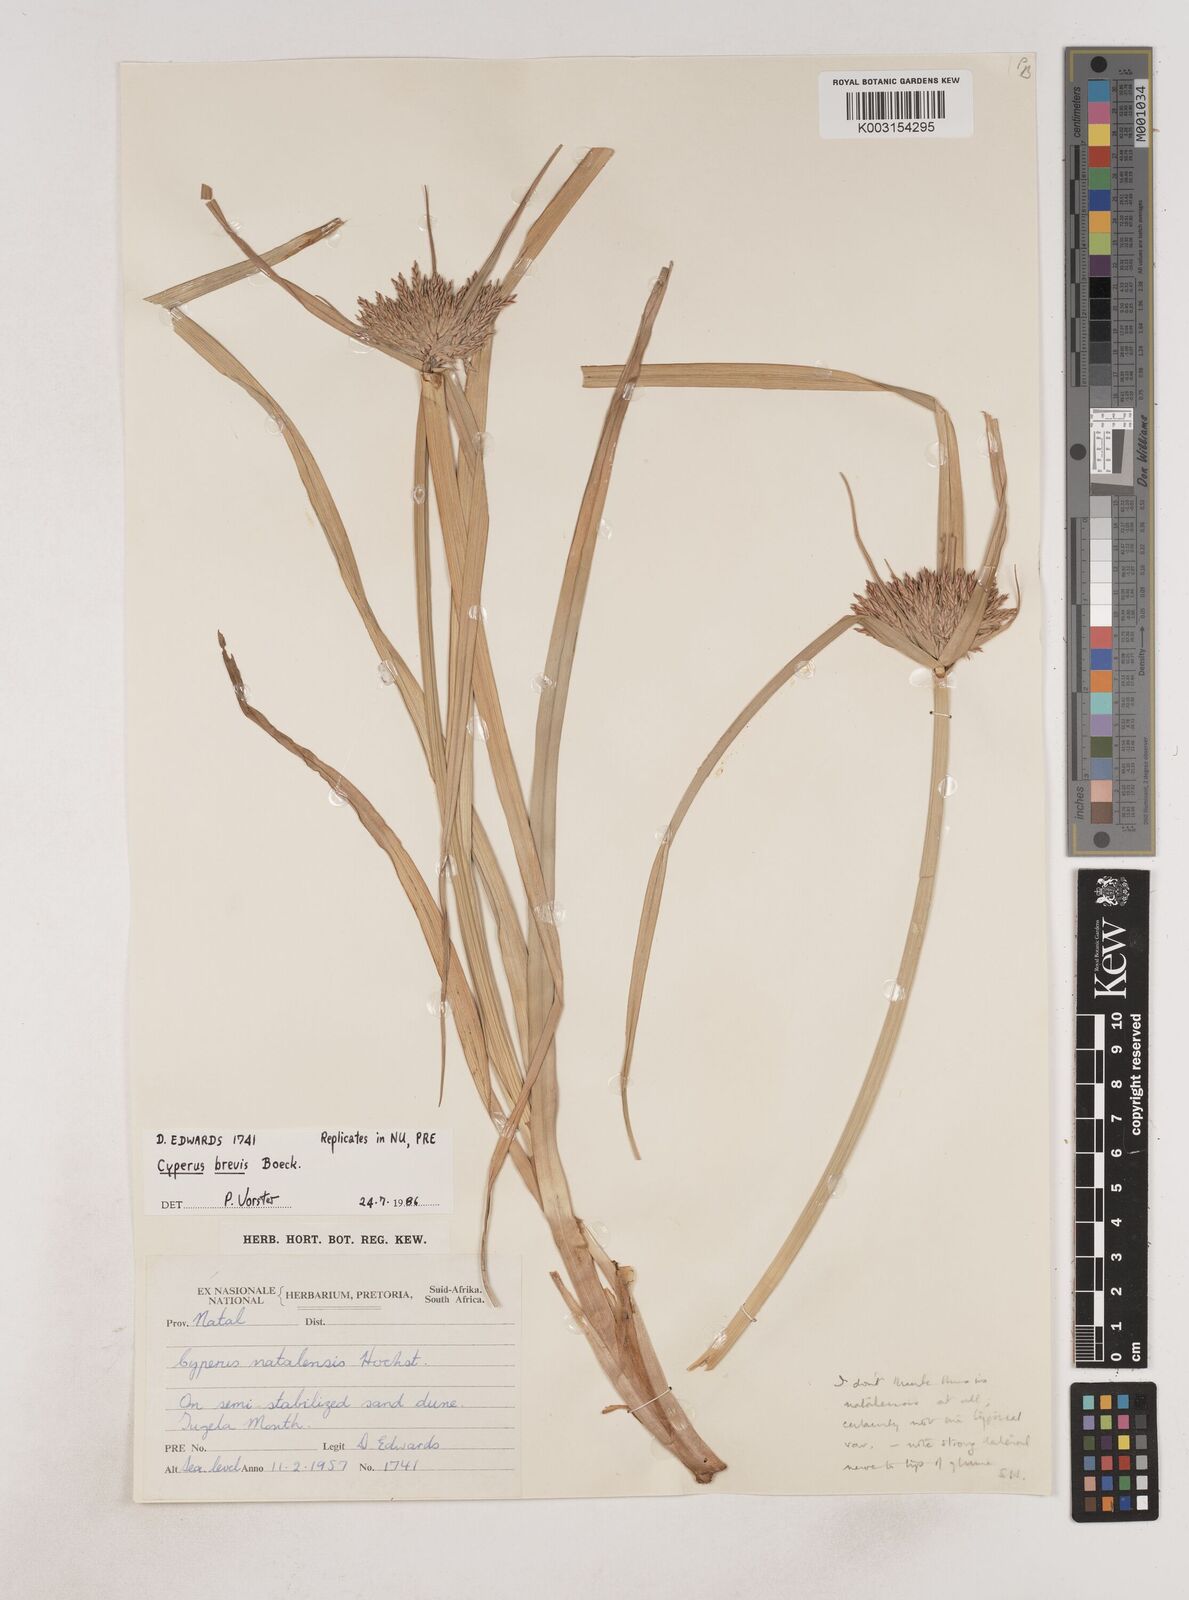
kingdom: Plantae
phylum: Tracheophyta
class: Liliopsida
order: Poales
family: Cyperaceae
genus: Cyperus
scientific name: Cyperus congestus
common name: Dense flat sedge
